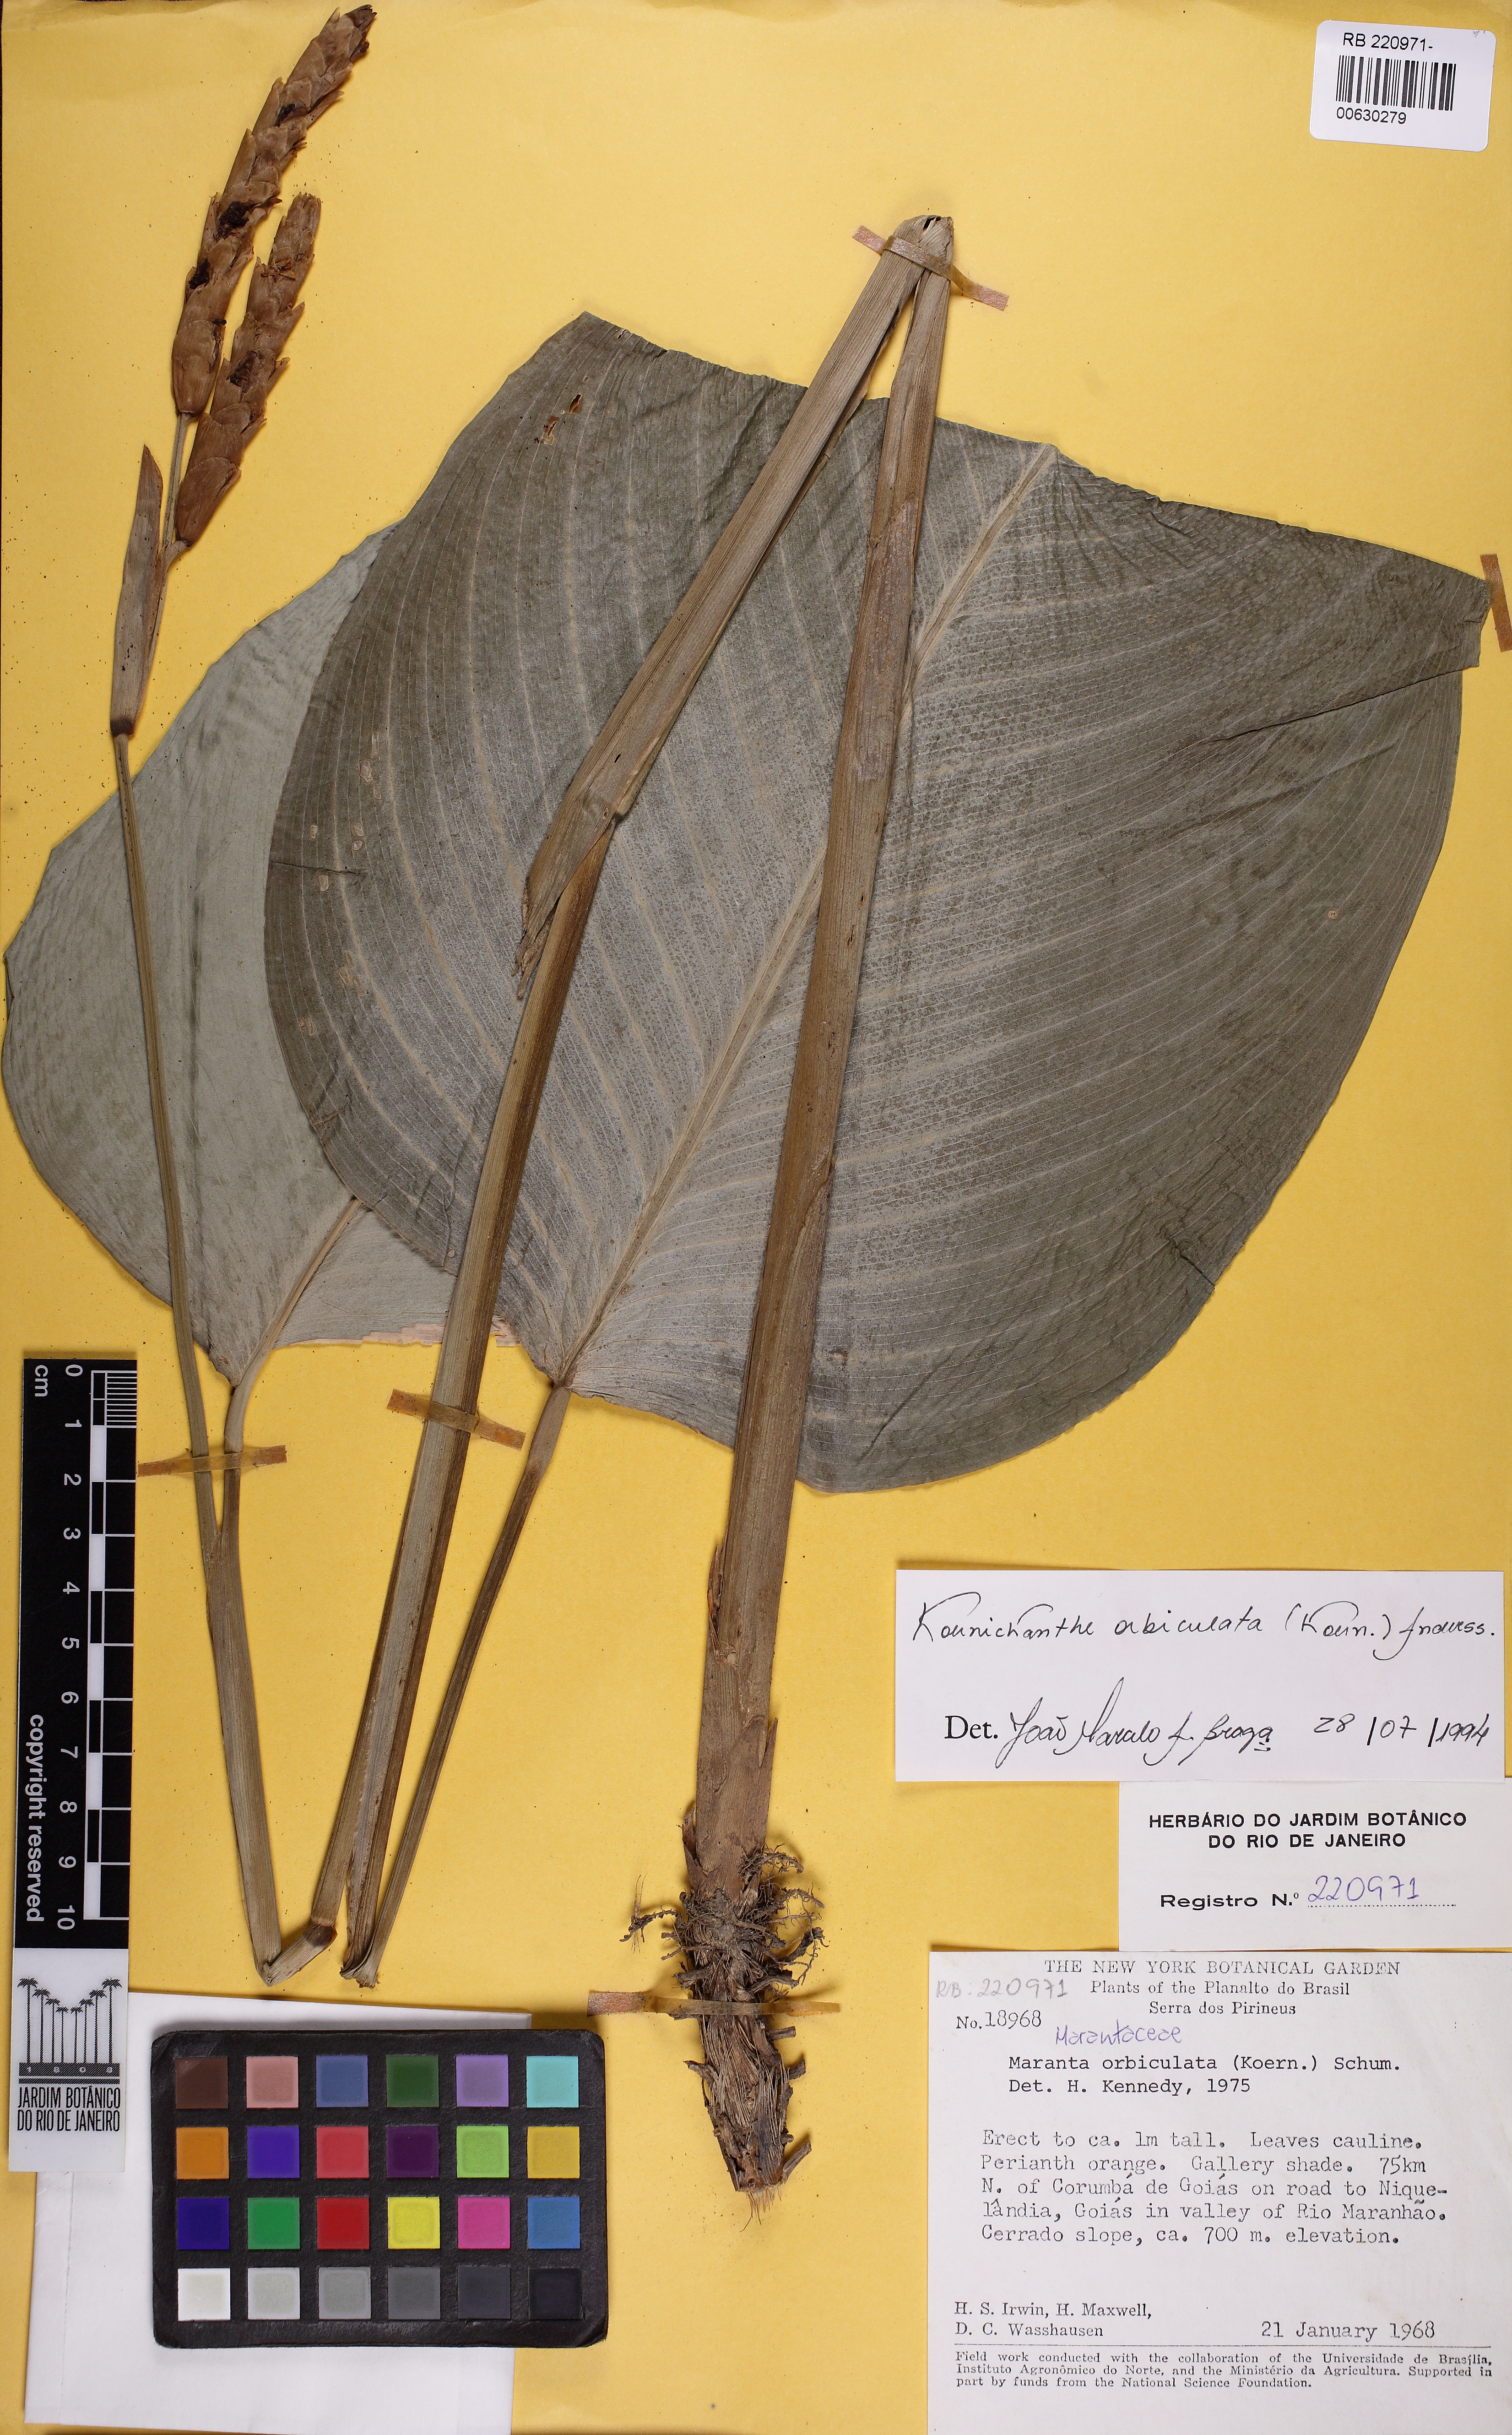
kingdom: Plantae
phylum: Tracheophyta
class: Liliopsida
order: Zingiberales
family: Marantaceae
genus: Koernickanthe
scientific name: Koernickanthe orbiculata
